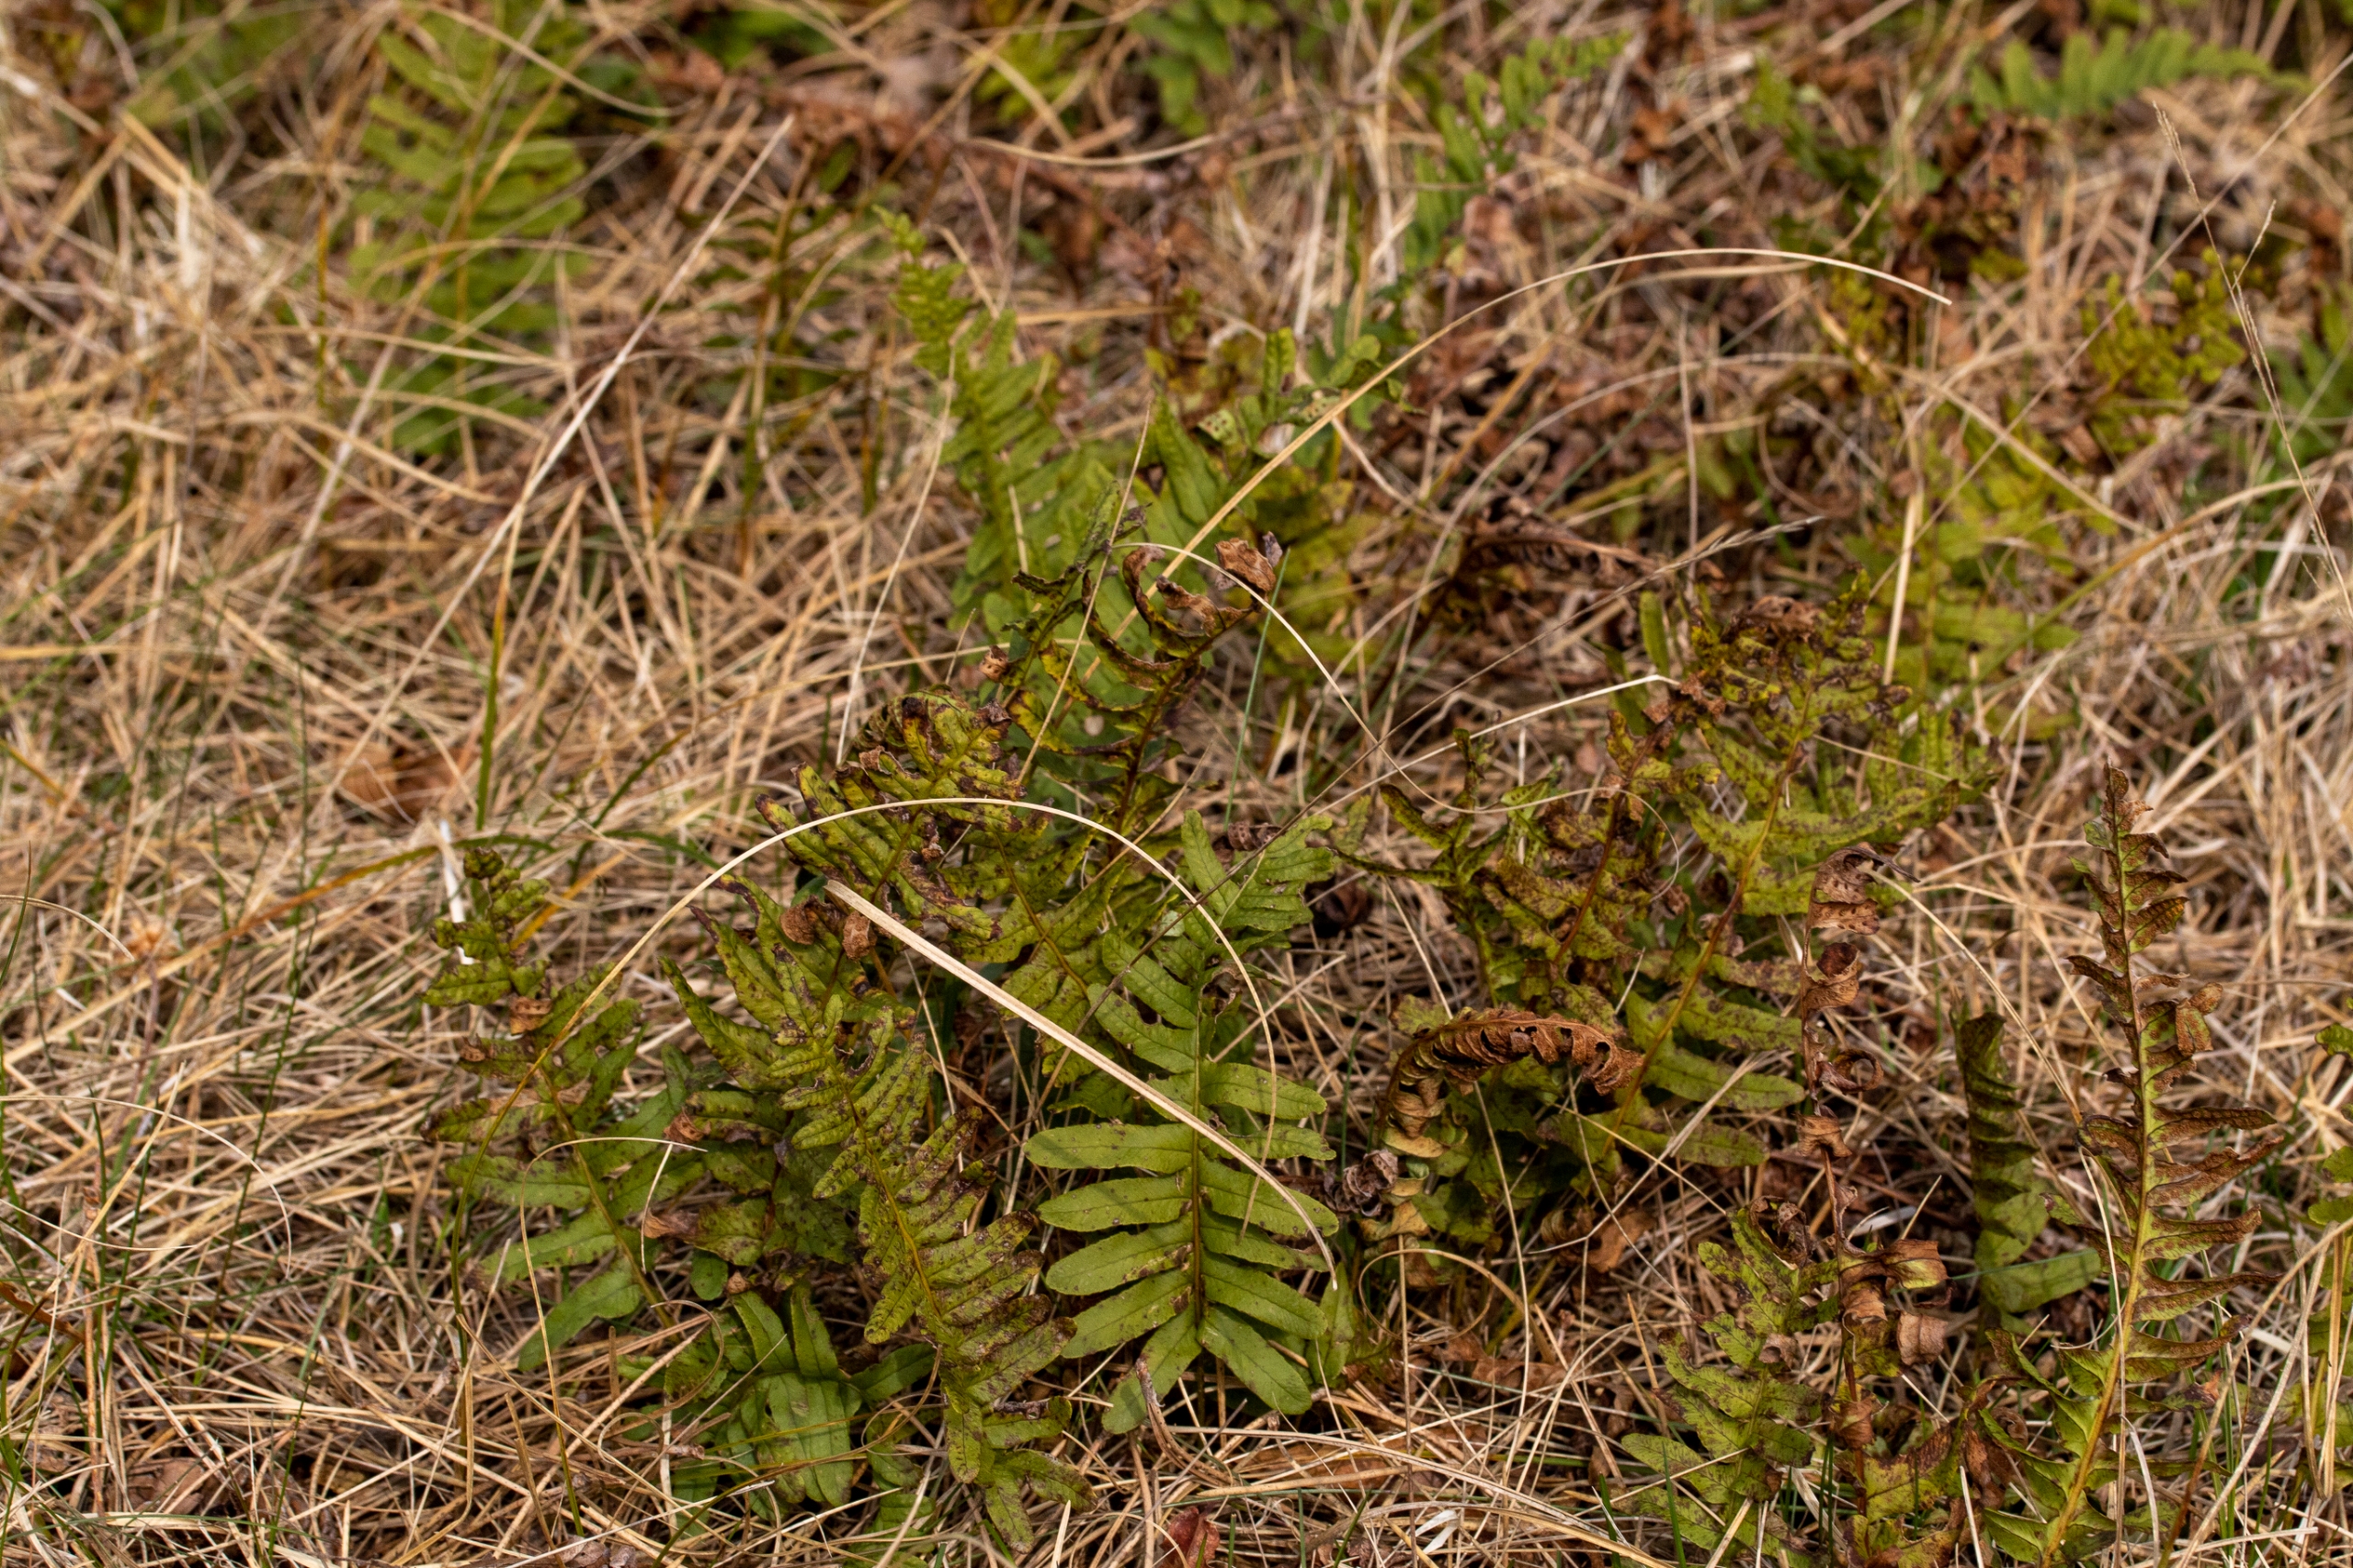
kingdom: Plantae
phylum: Tracheophyta
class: Polypodiopsida
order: Polypodiales
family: Polypodiaceae
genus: Polypodium
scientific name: Polypodium vulgare
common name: Almindelig engelsød
